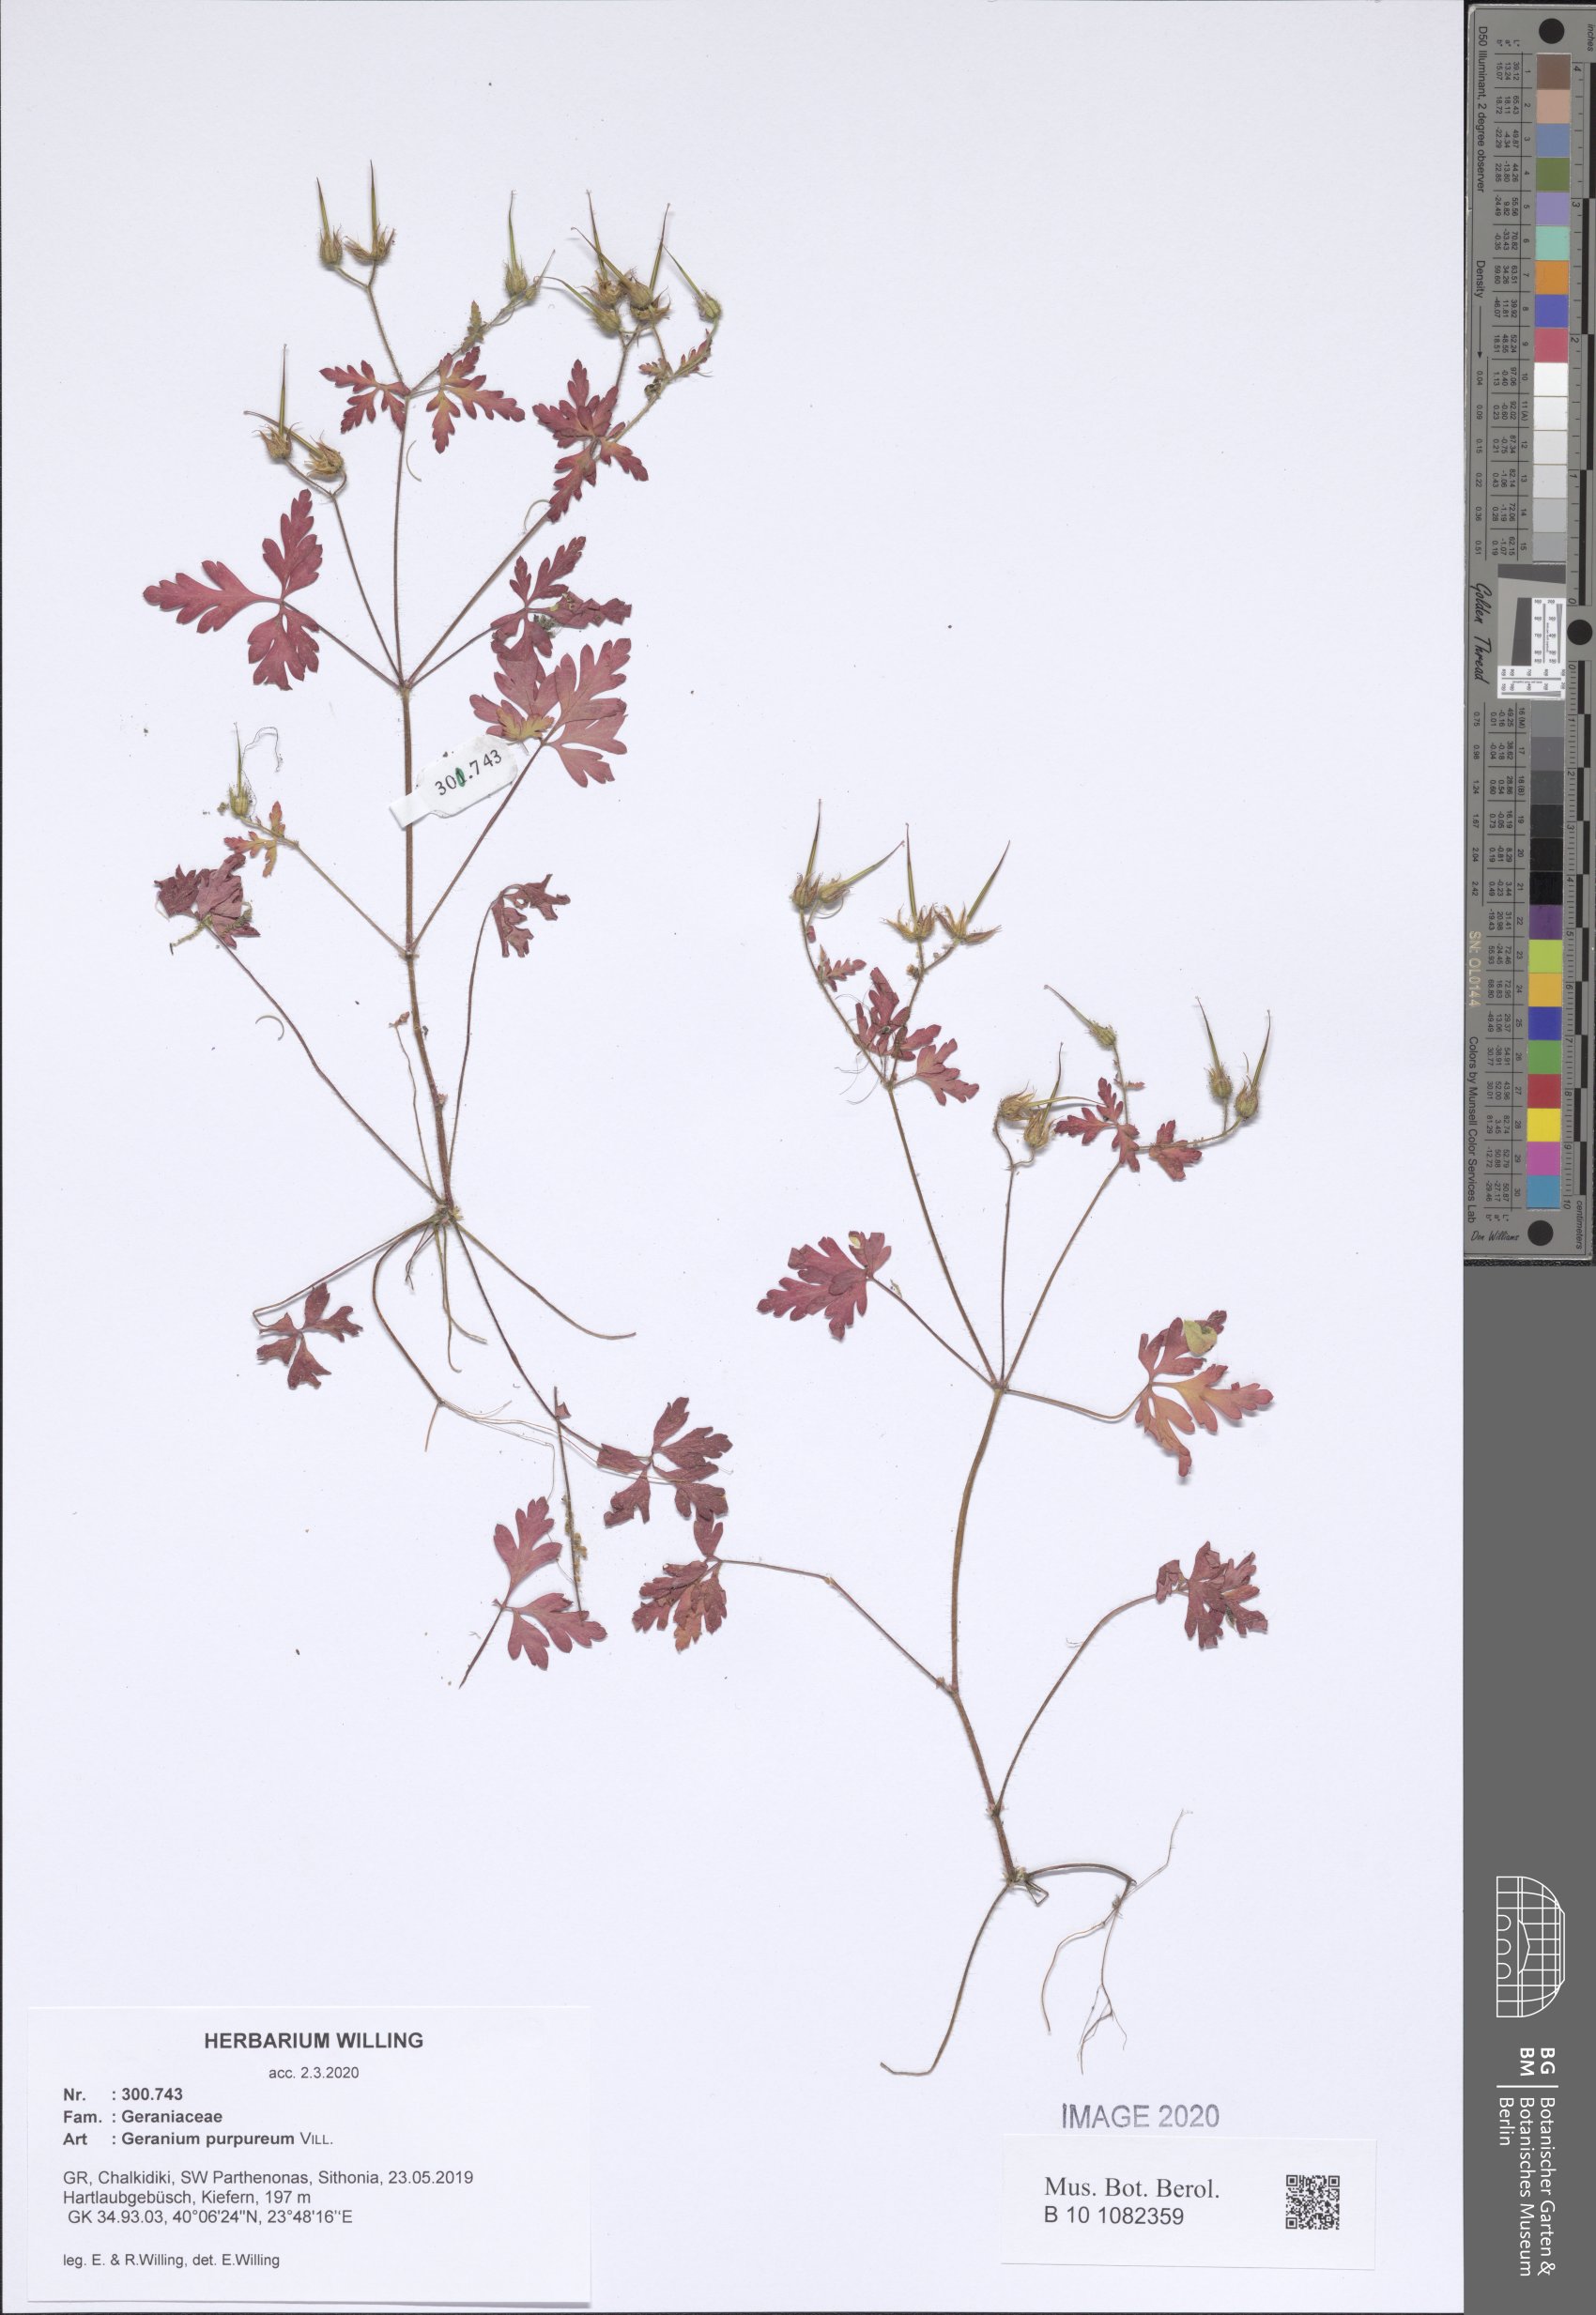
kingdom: Plantae
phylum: Tracheophyta
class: Magnoliopsida
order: Geraniales
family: Geraniaceae
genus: Geranium
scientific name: Geranium purpureum
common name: Little-robin
